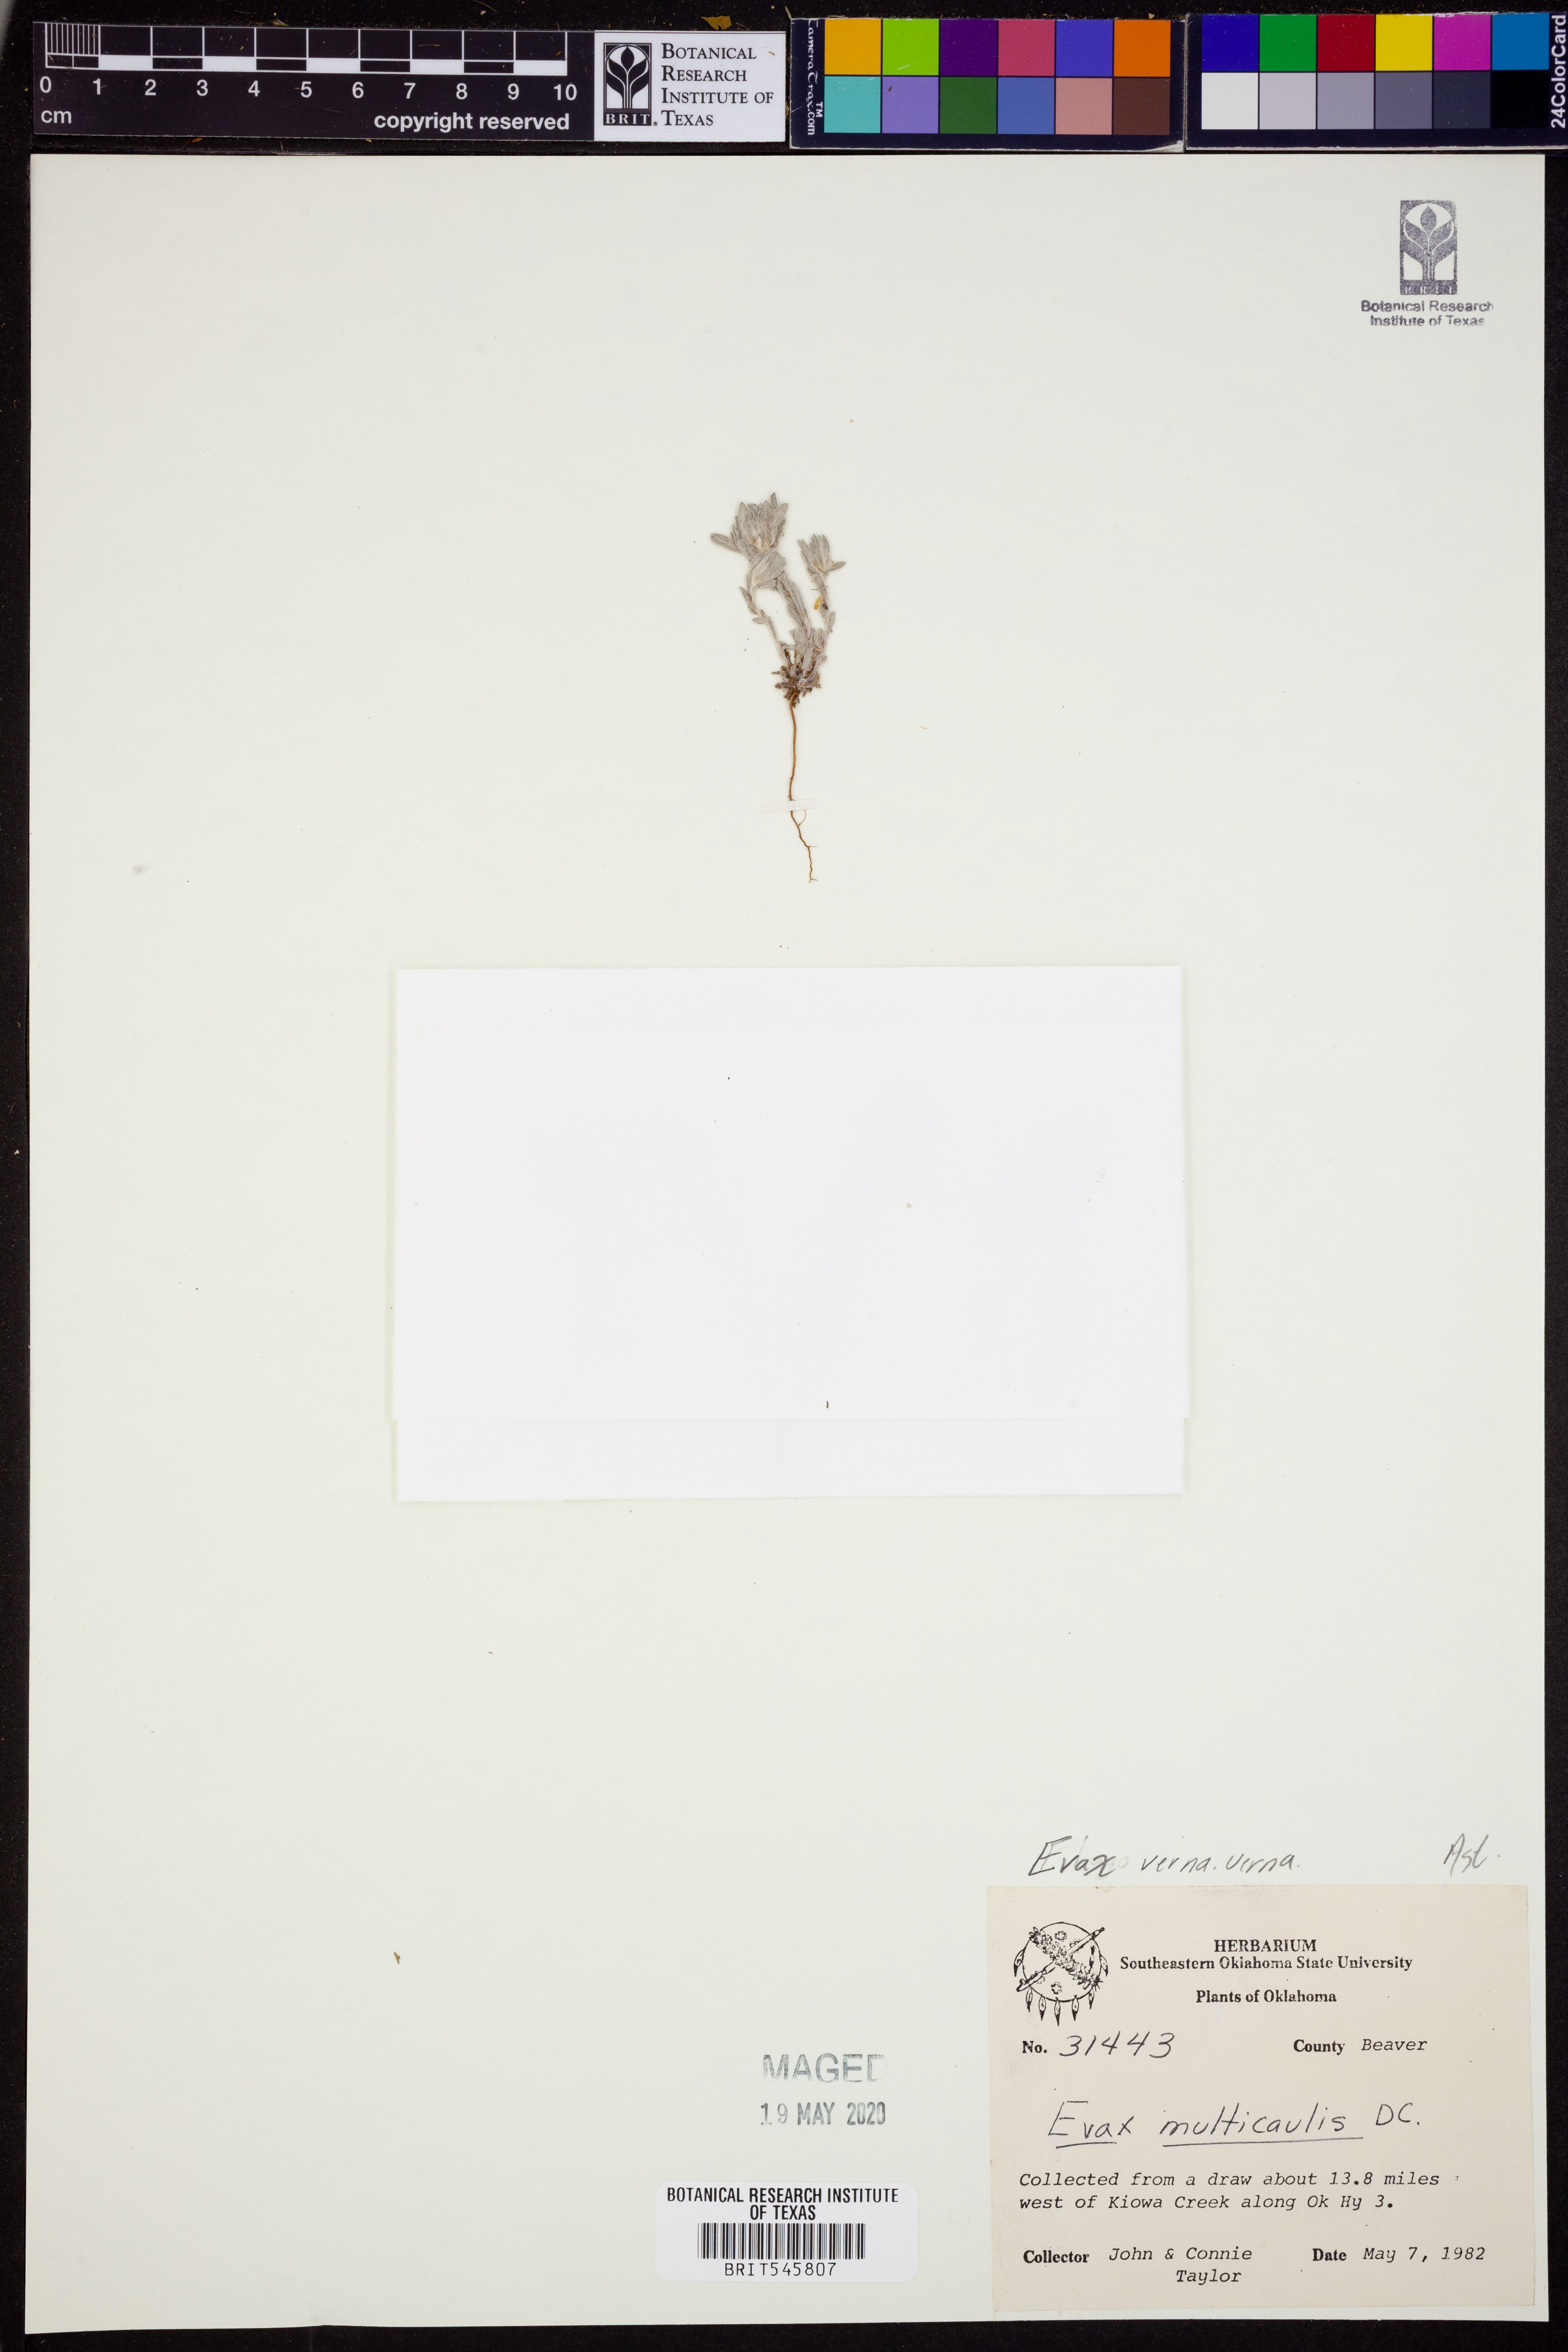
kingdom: Plantae
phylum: Tracheophyta
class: Magnoliopsida
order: Asterales
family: Asteraceae
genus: Diaperia
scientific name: Diaperia verna
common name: Many-stem rabbit-tobacco
